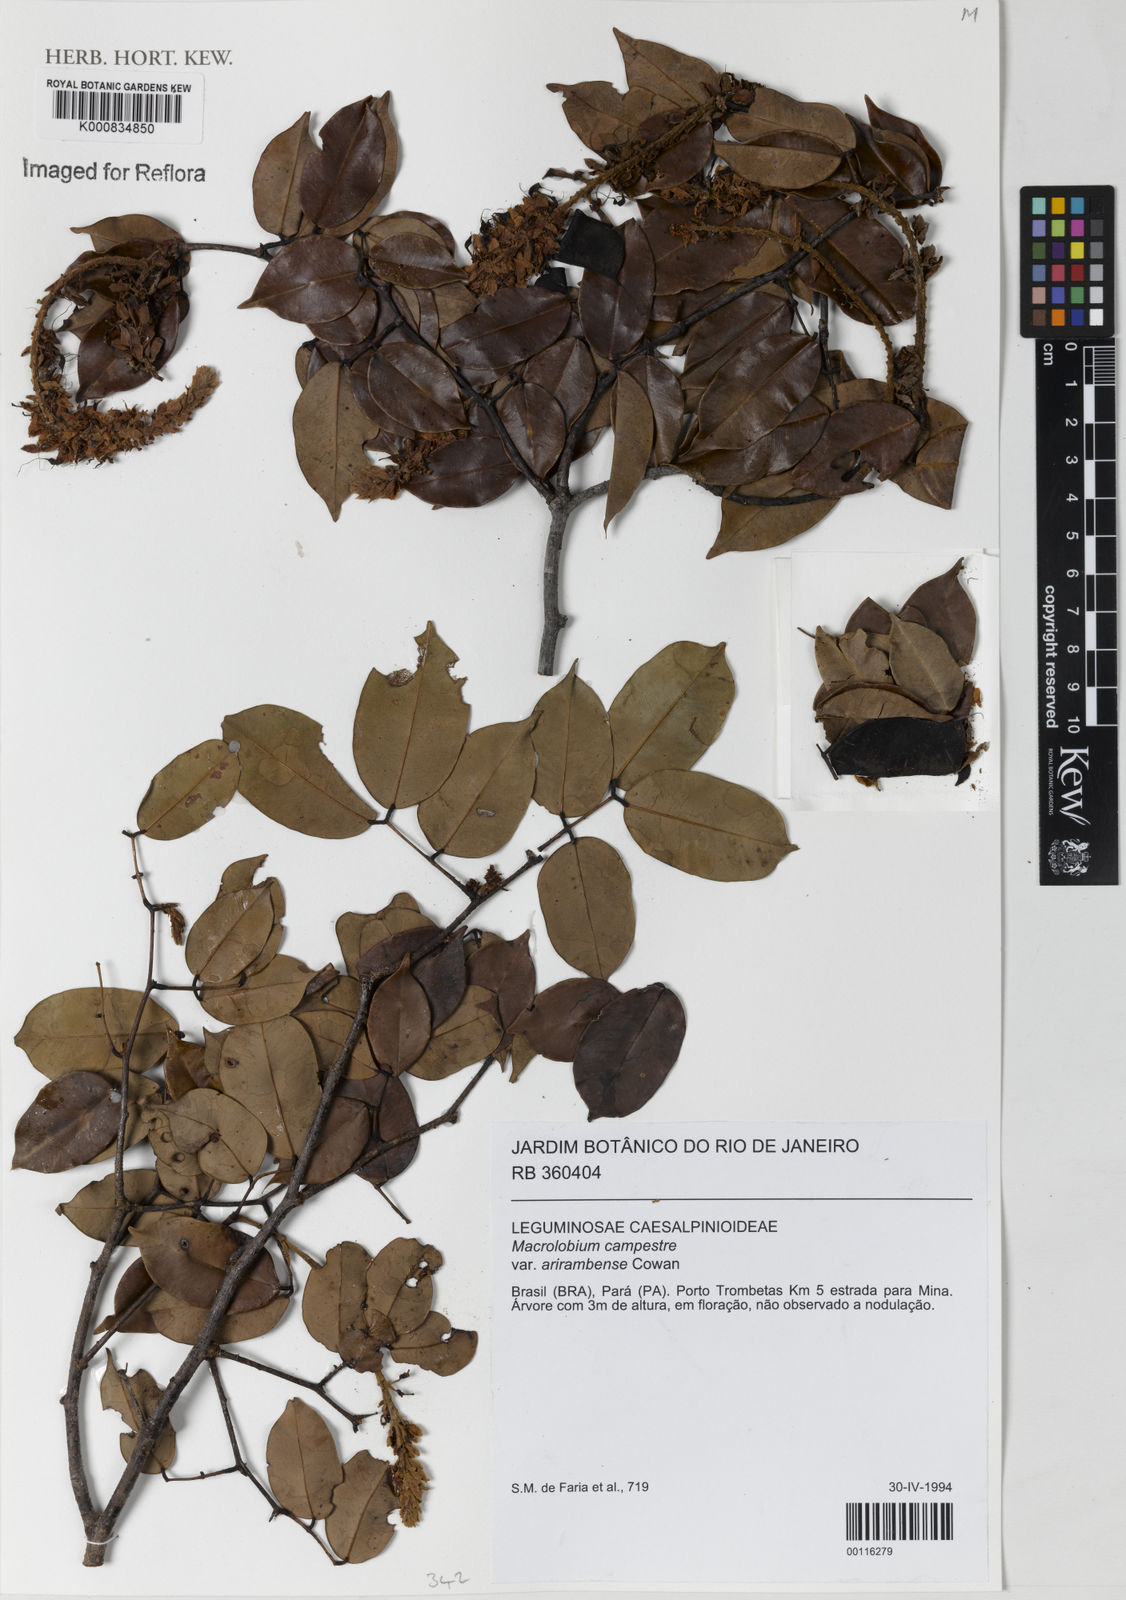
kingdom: Plantae
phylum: Tracheophyta
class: Magnoliopsida
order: Fabales
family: Fabaceae
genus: Macrolobium
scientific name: Macrolobium campestre
